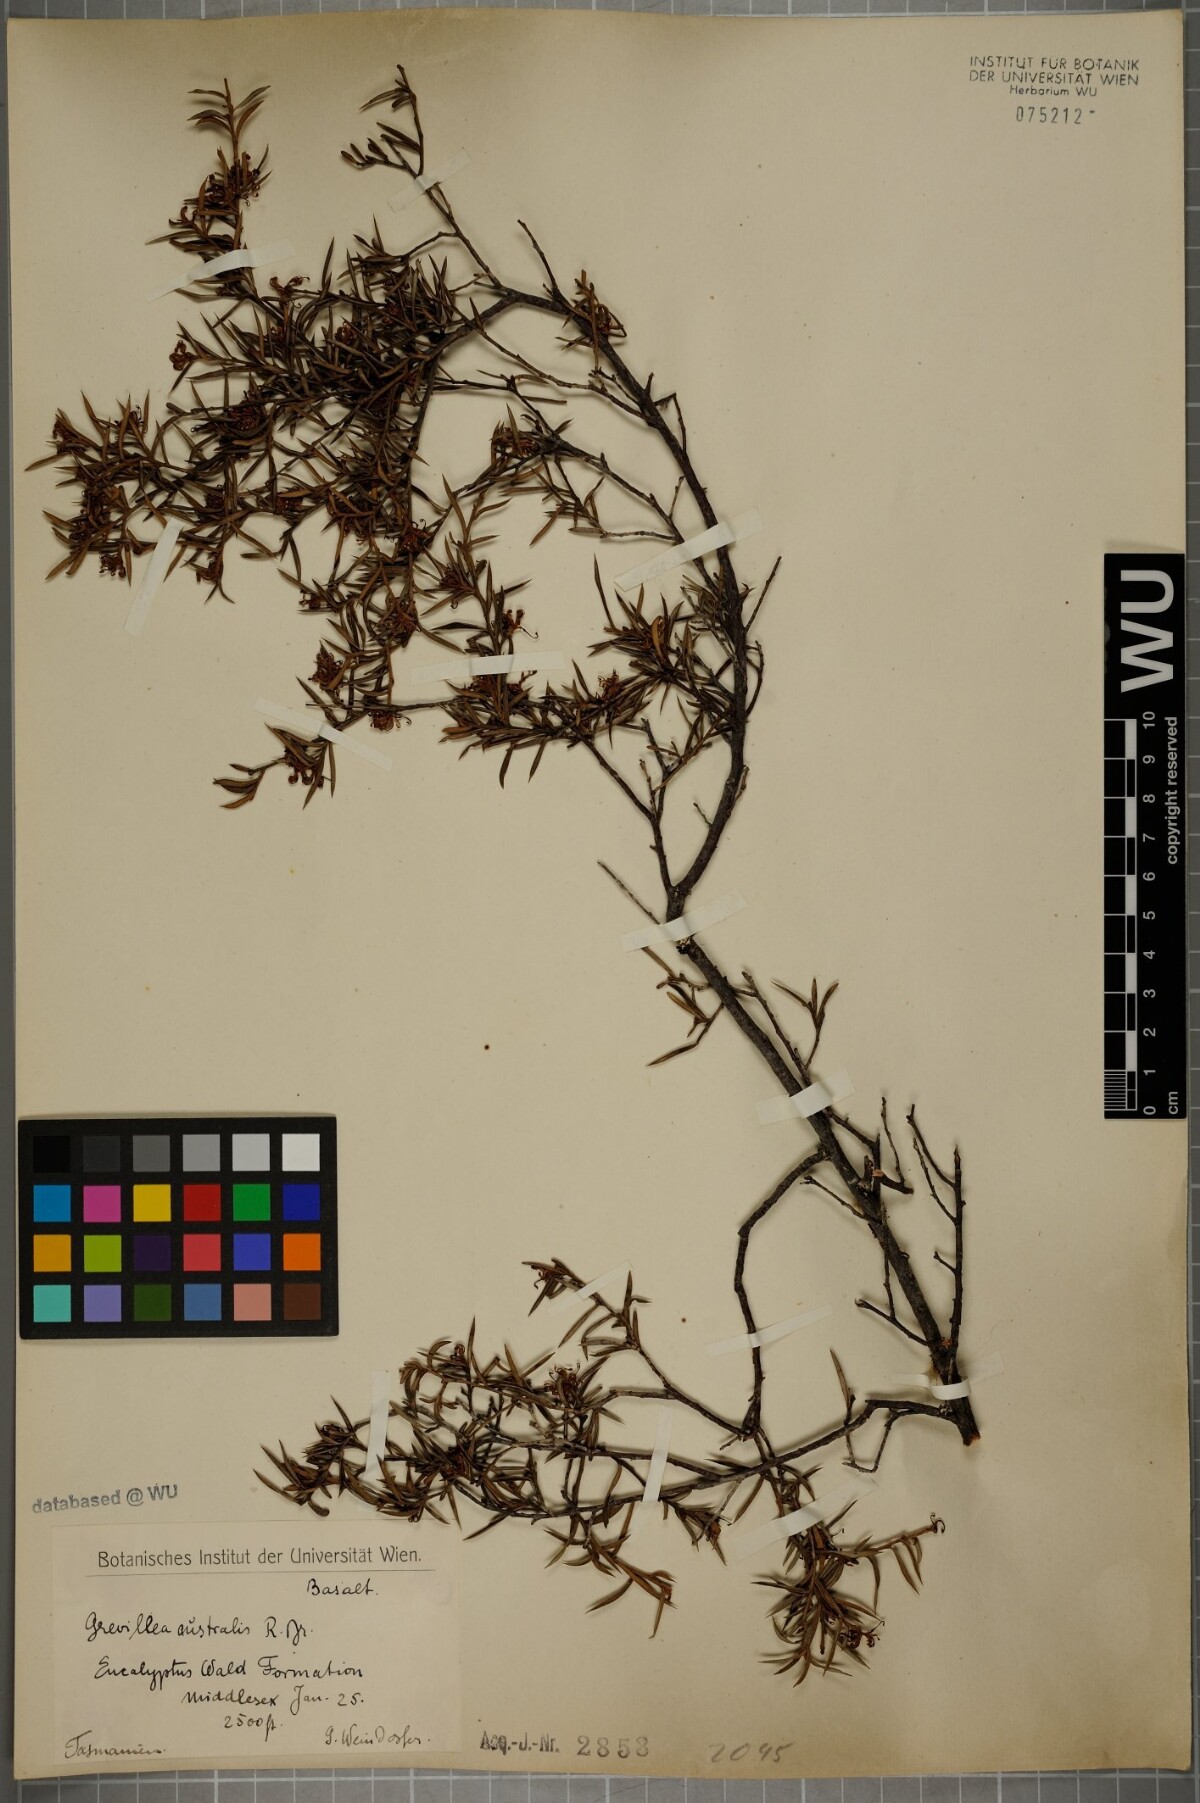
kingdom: Plantae
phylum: Tracheophyta
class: Magnoliopsida
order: Proteales
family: Proteaceae
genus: Grevillea
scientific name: Grevillea australis
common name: Alpine grevillea
